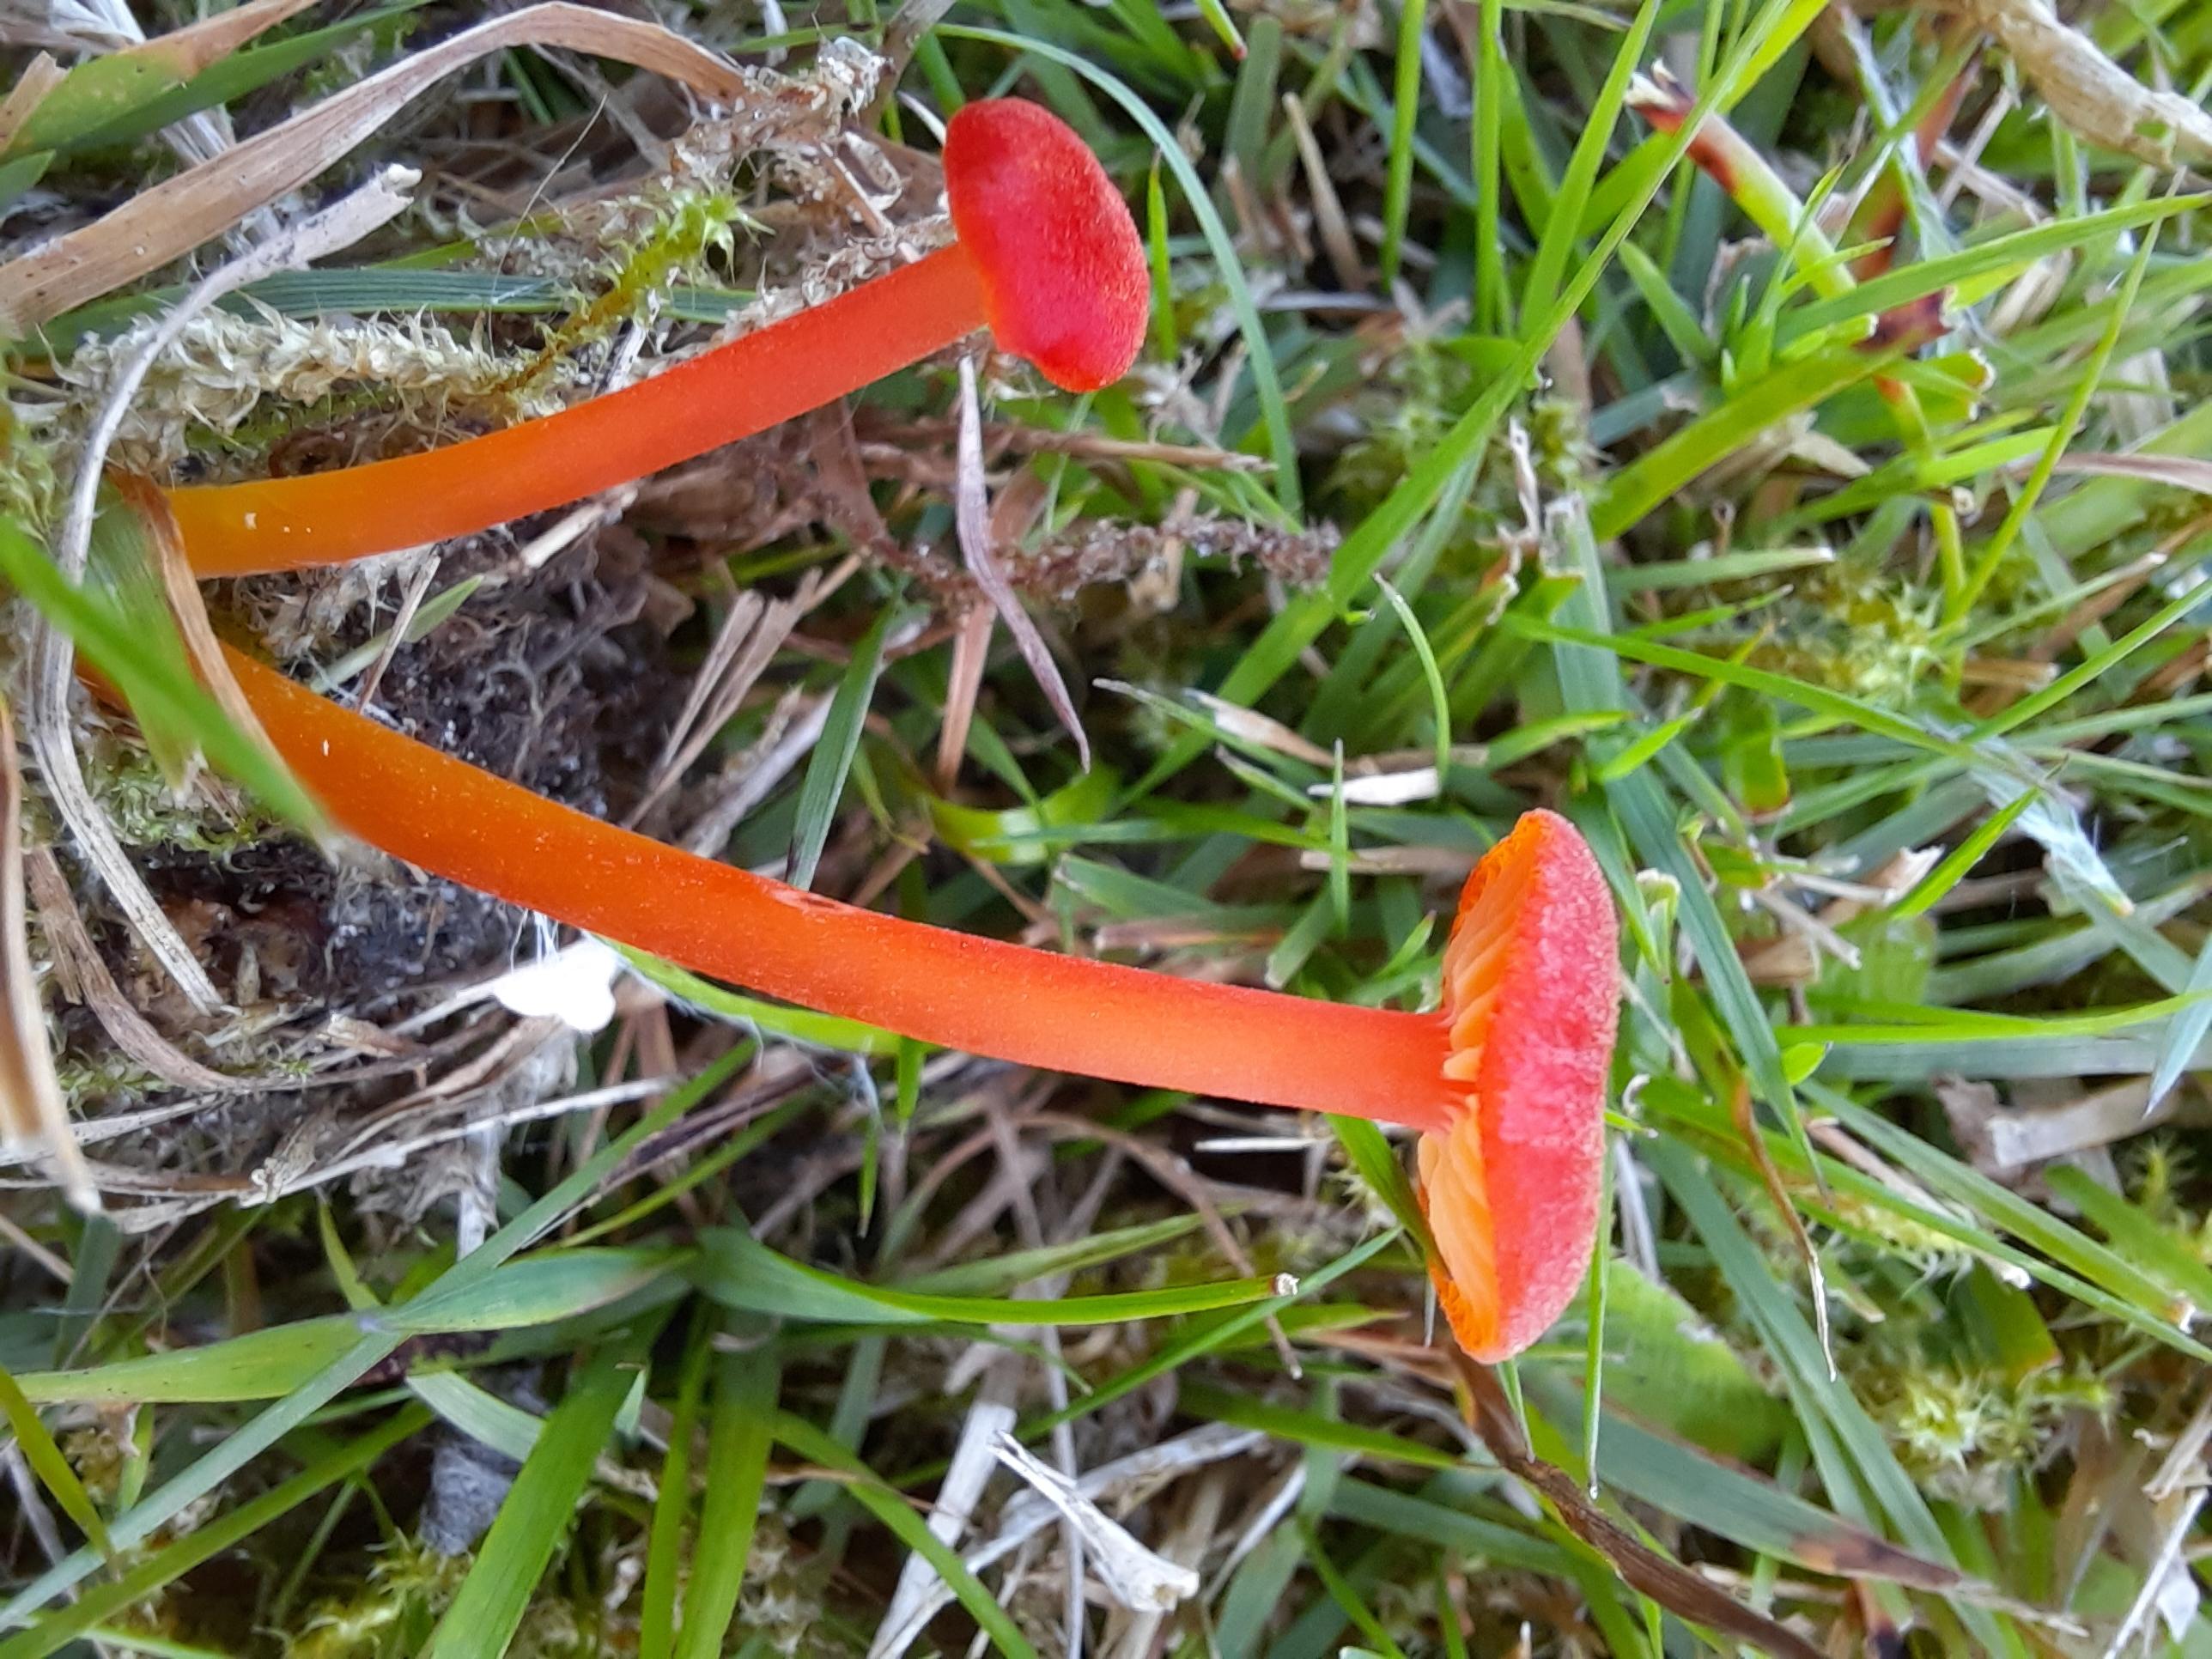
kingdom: Fungi
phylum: Basidiomycota
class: Agaricomycetes
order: Agaricales
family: Hygrophoraceae
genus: Hygrocybe
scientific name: Hygrocybe miniata
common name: mønje-vokshat
